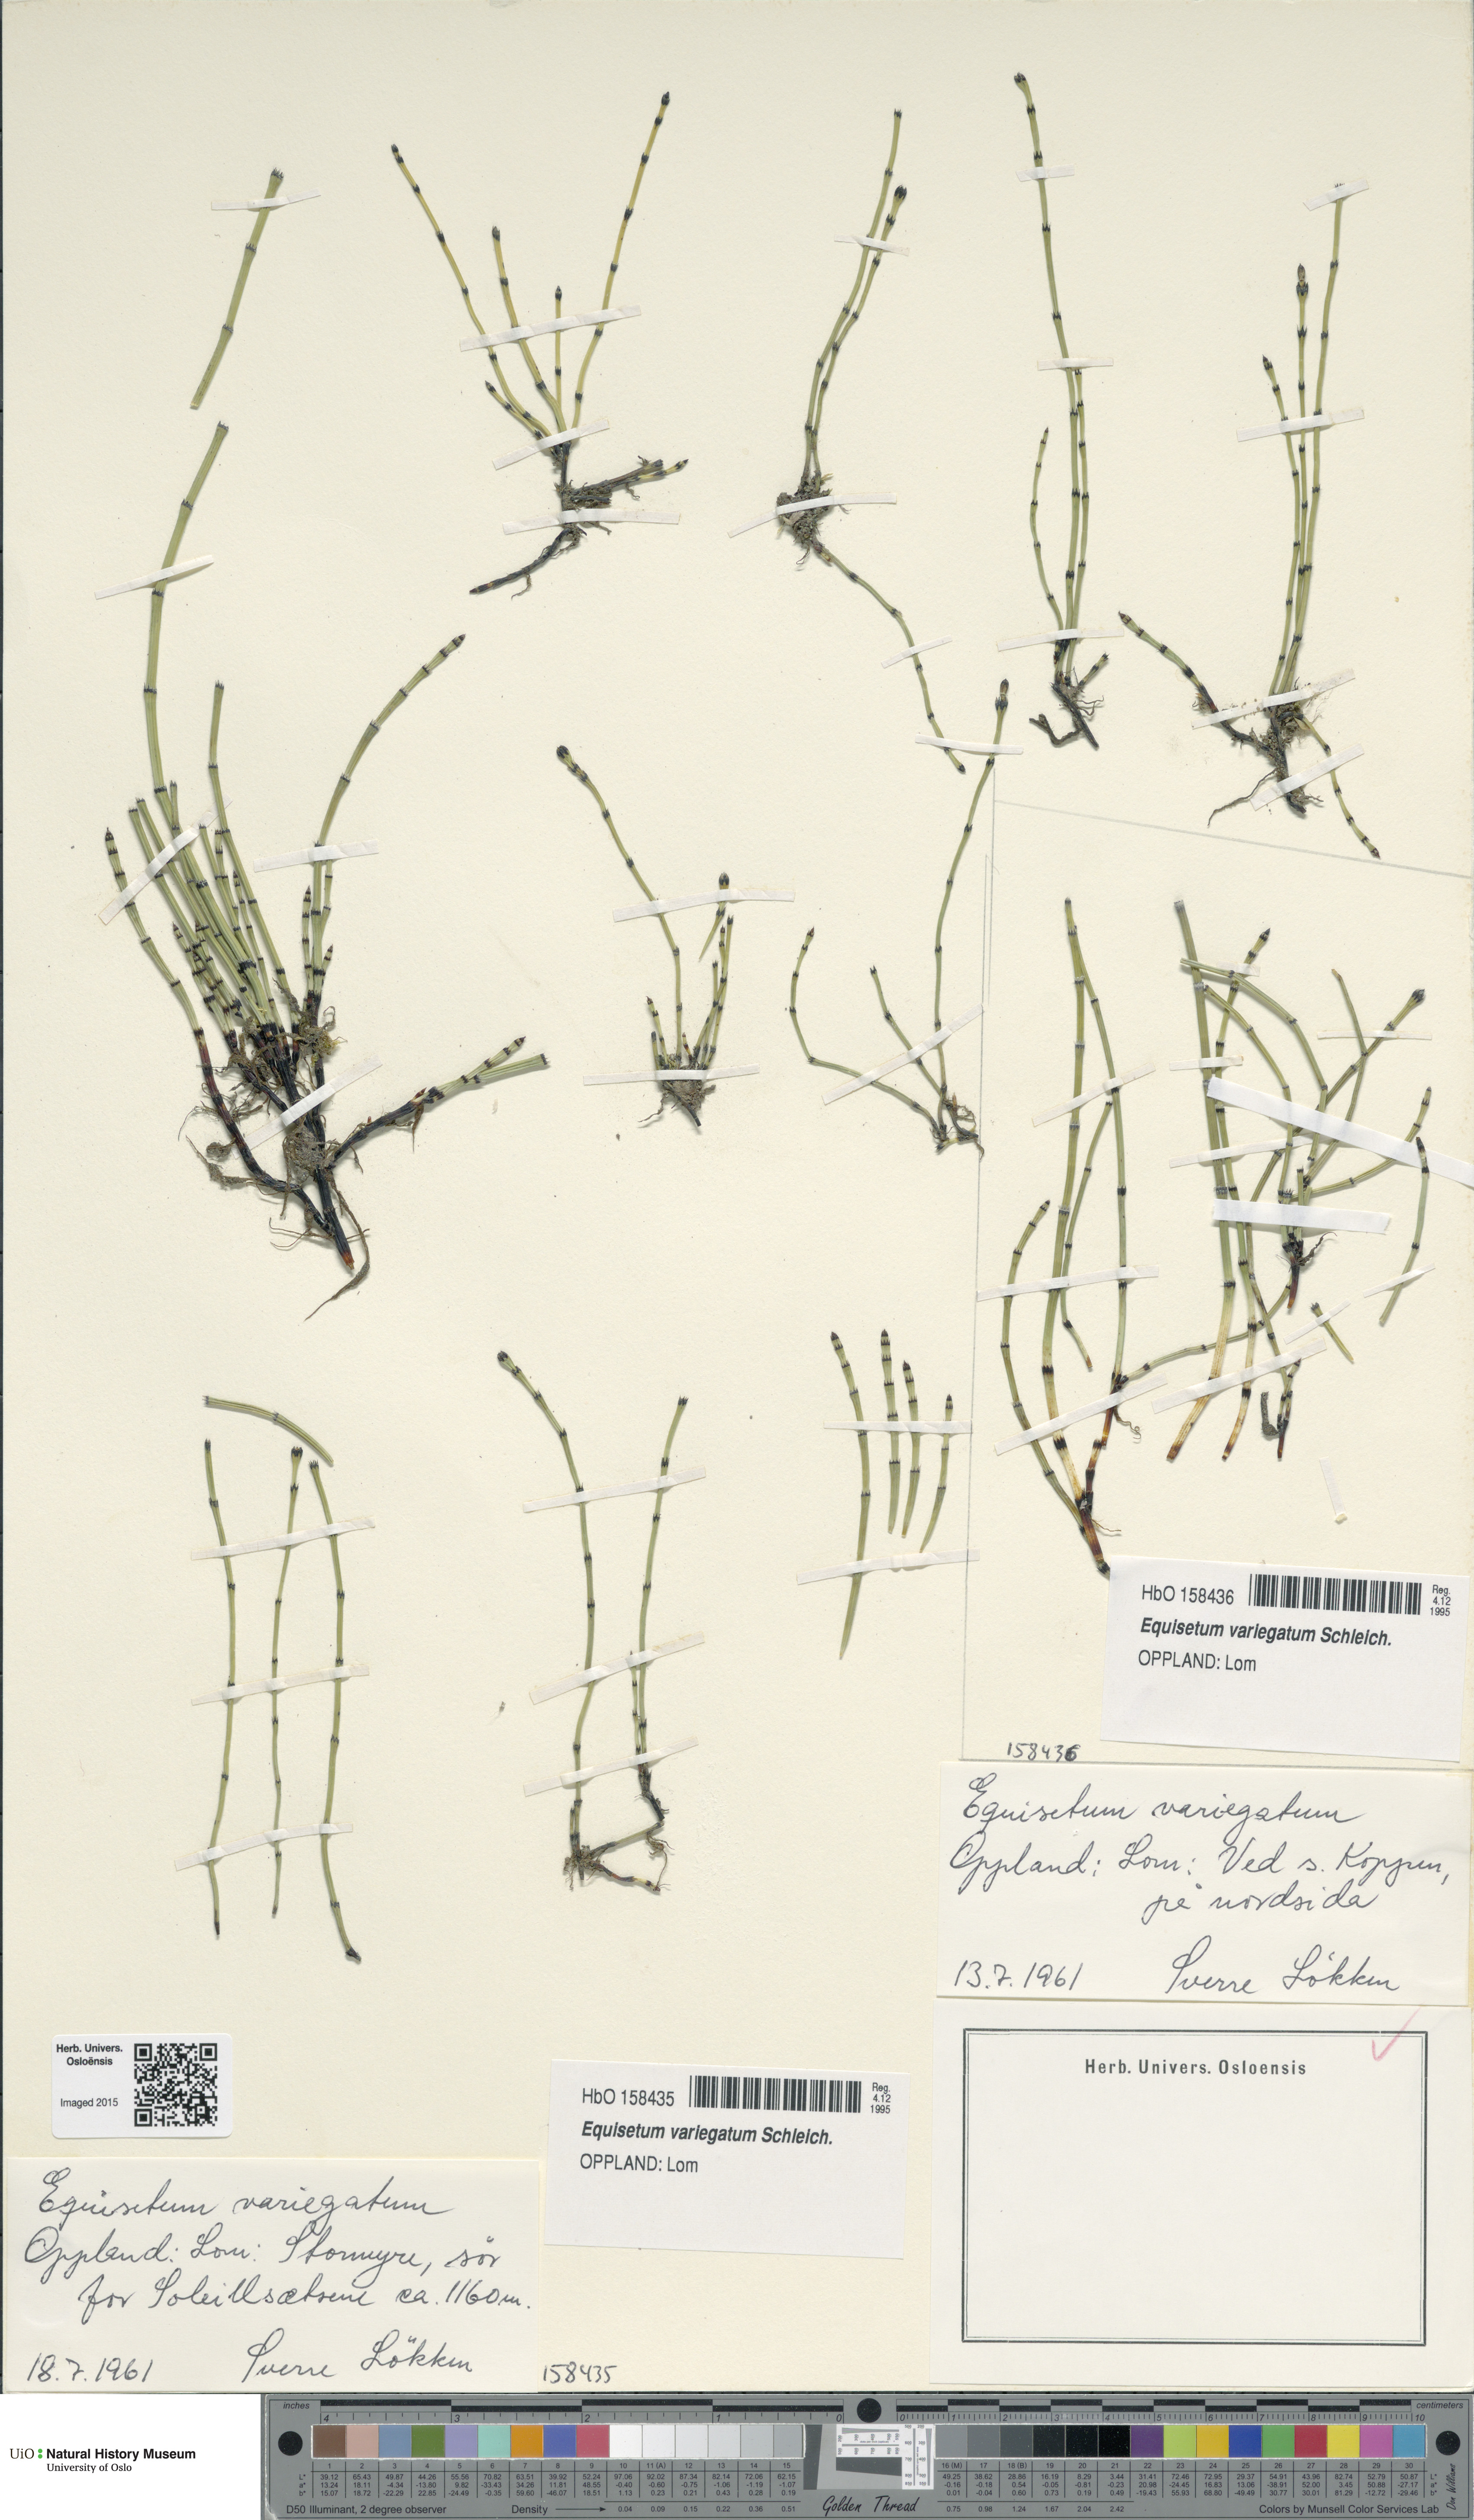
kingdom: Plantae
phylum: Tracheophyta
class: Polypodiopsida
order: Equisetales
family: Equisetaceae
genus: Equisetum
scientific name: Equisetum variegatum
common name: Variegated horsetail
